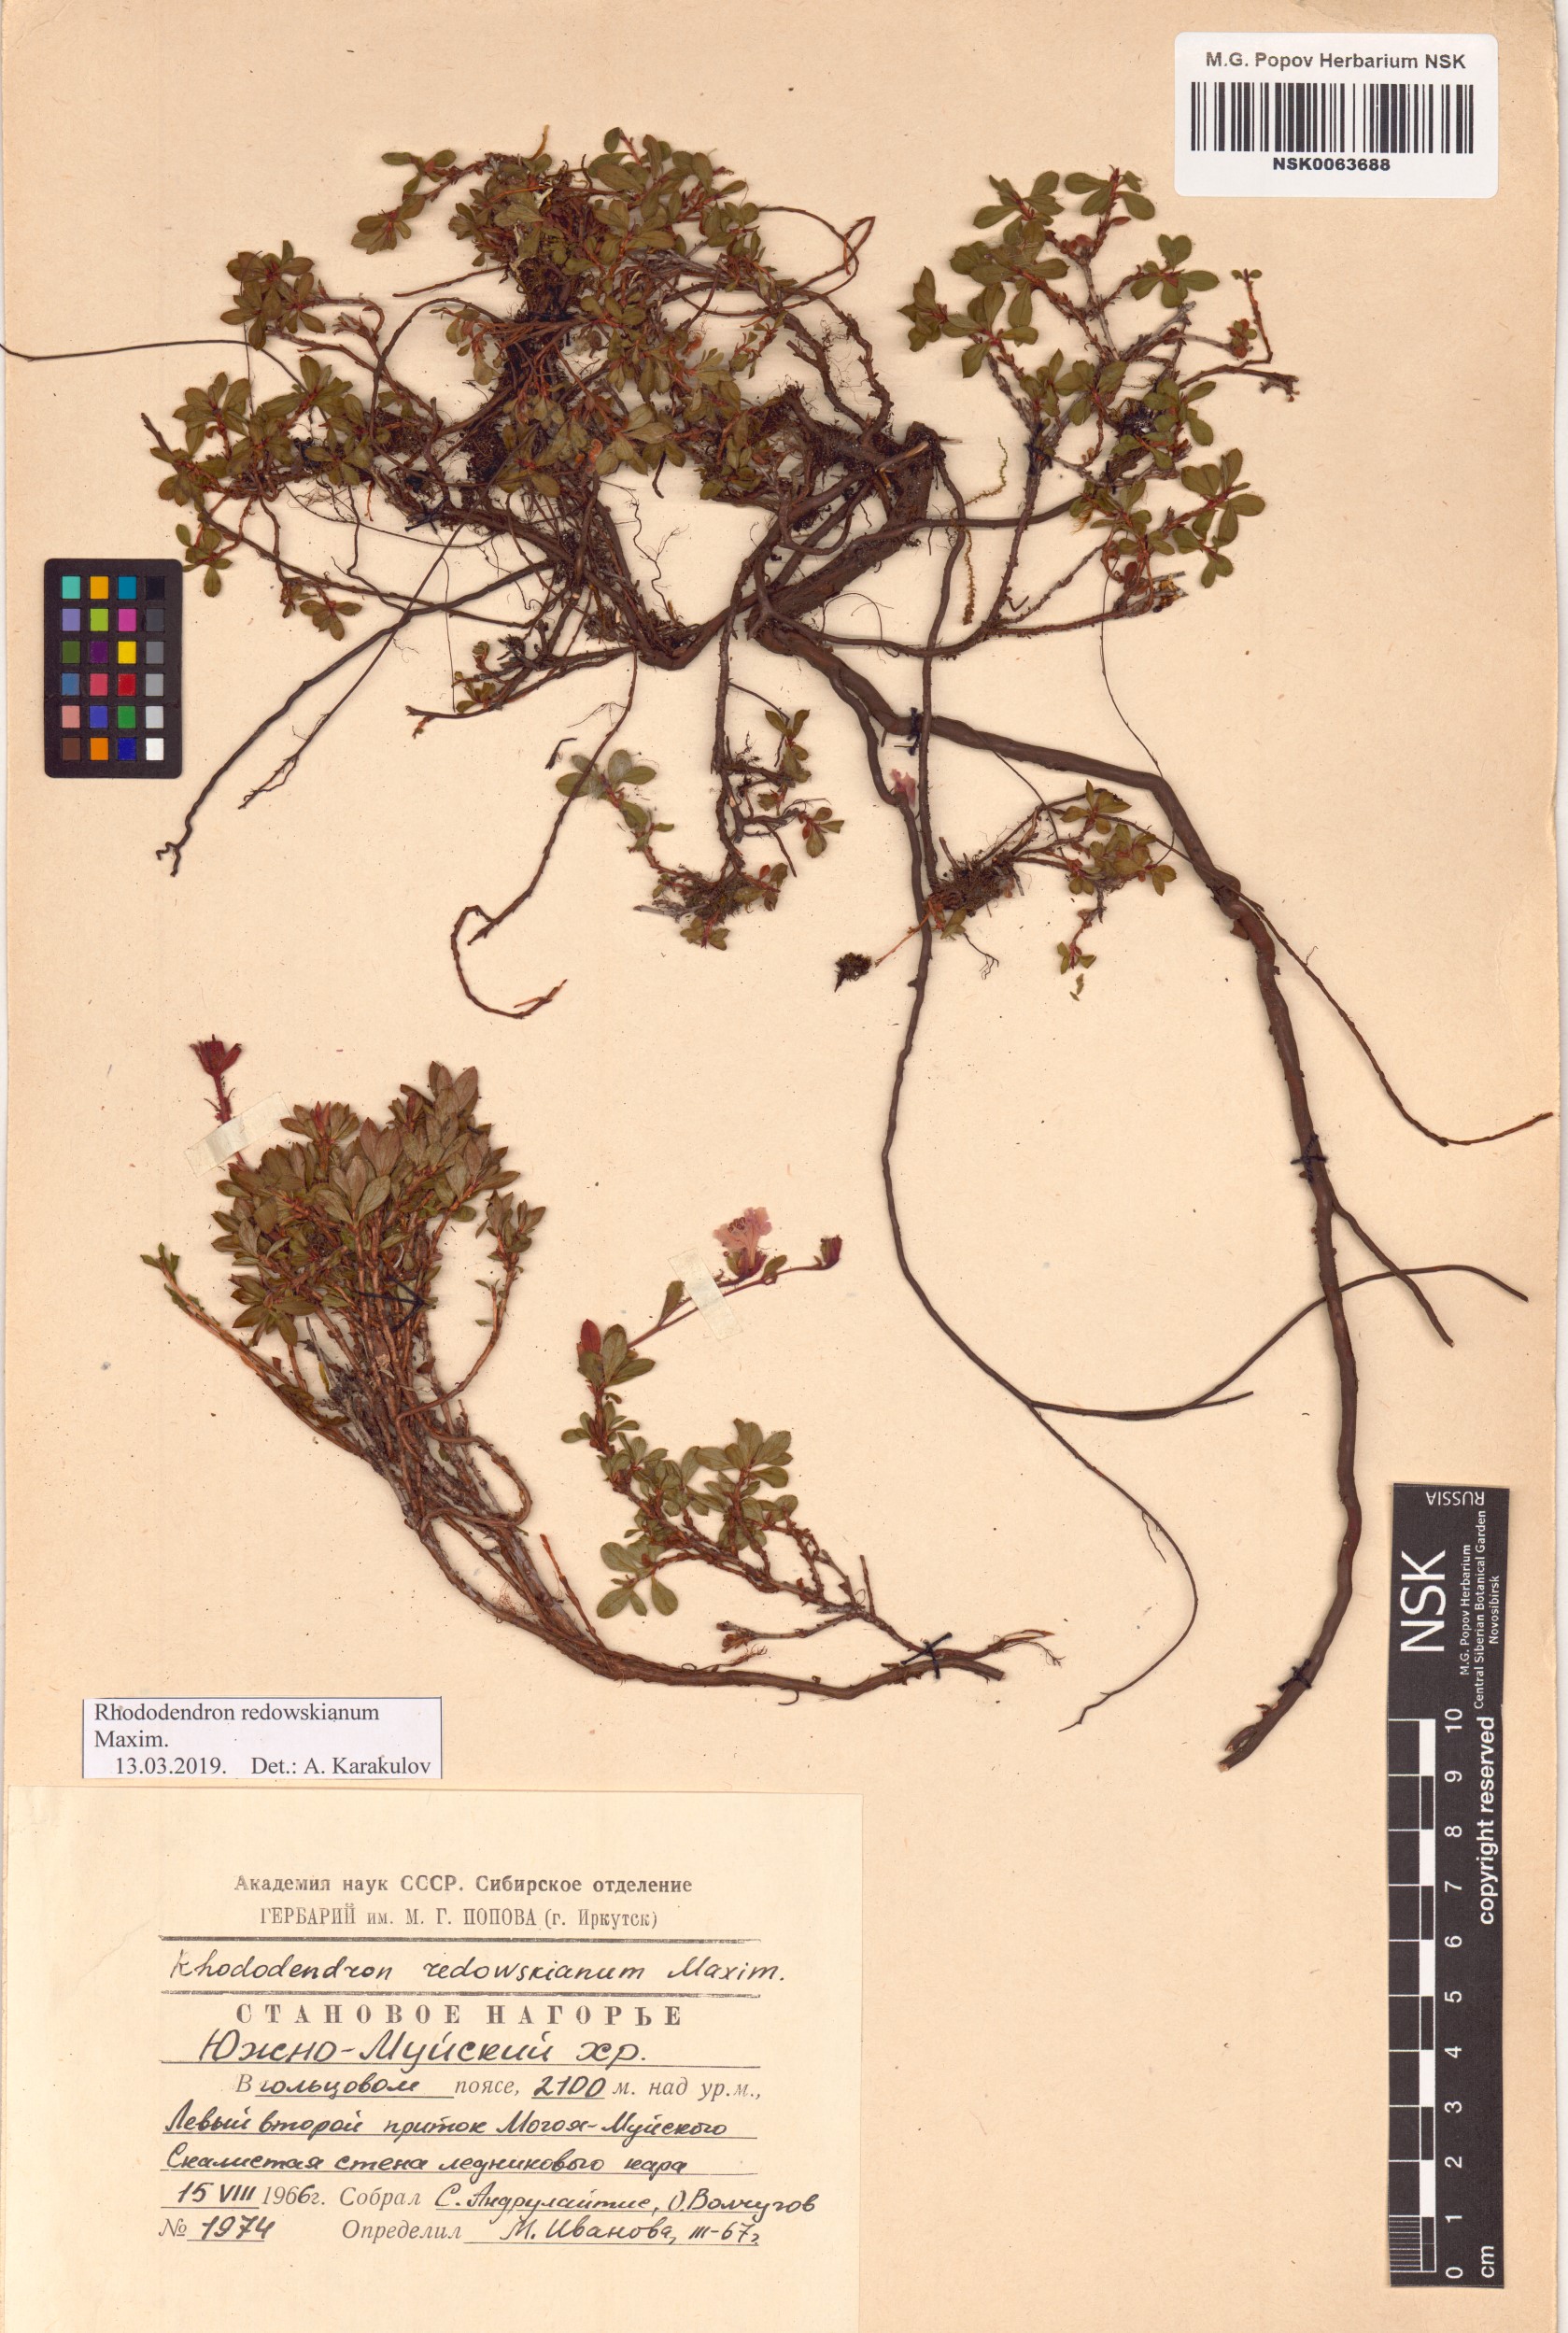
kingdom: Plantae
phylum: Tracheophyta
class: Magnoliopsida
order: Ericales
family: Ericaceae
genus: Rhododendron
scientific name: Rhododendron redowskianum
